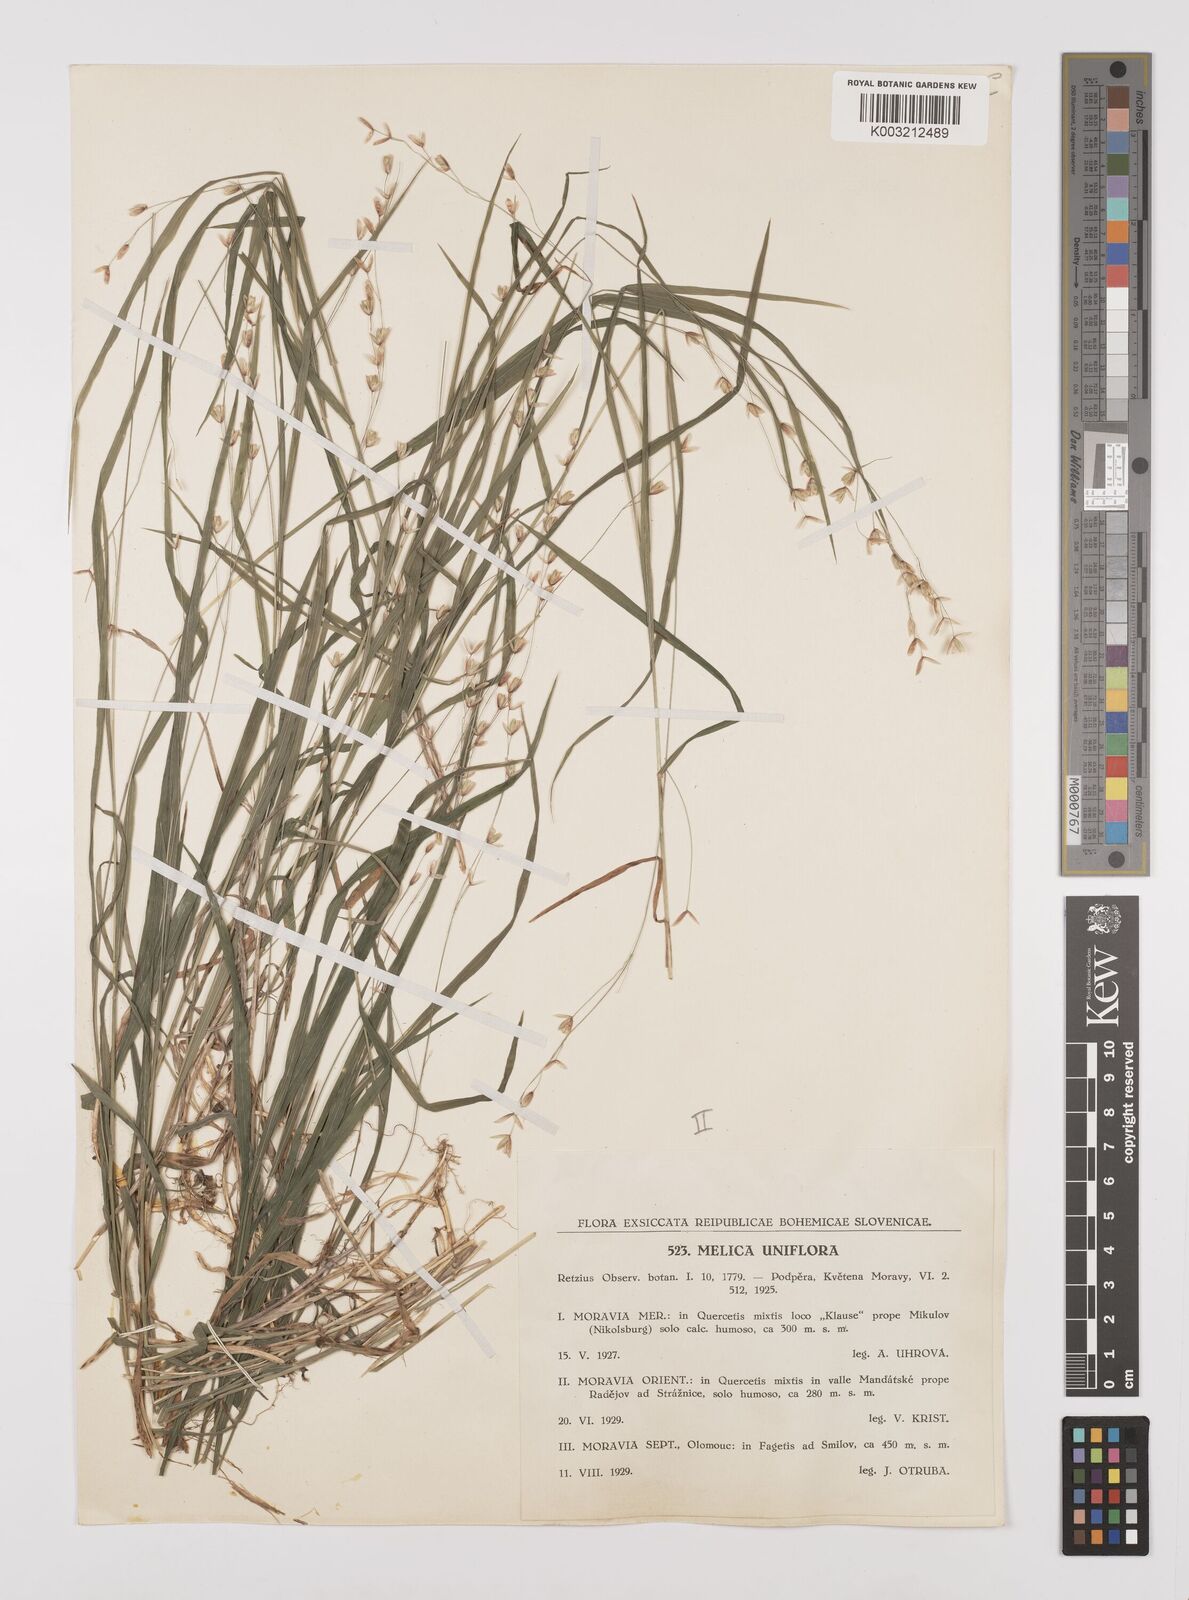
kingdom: Plantae
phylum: Tracheophyta
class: Liliopsida
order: Poales
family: Poaceae
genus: Melica
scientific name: Melica uniflora
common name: Wood melick
